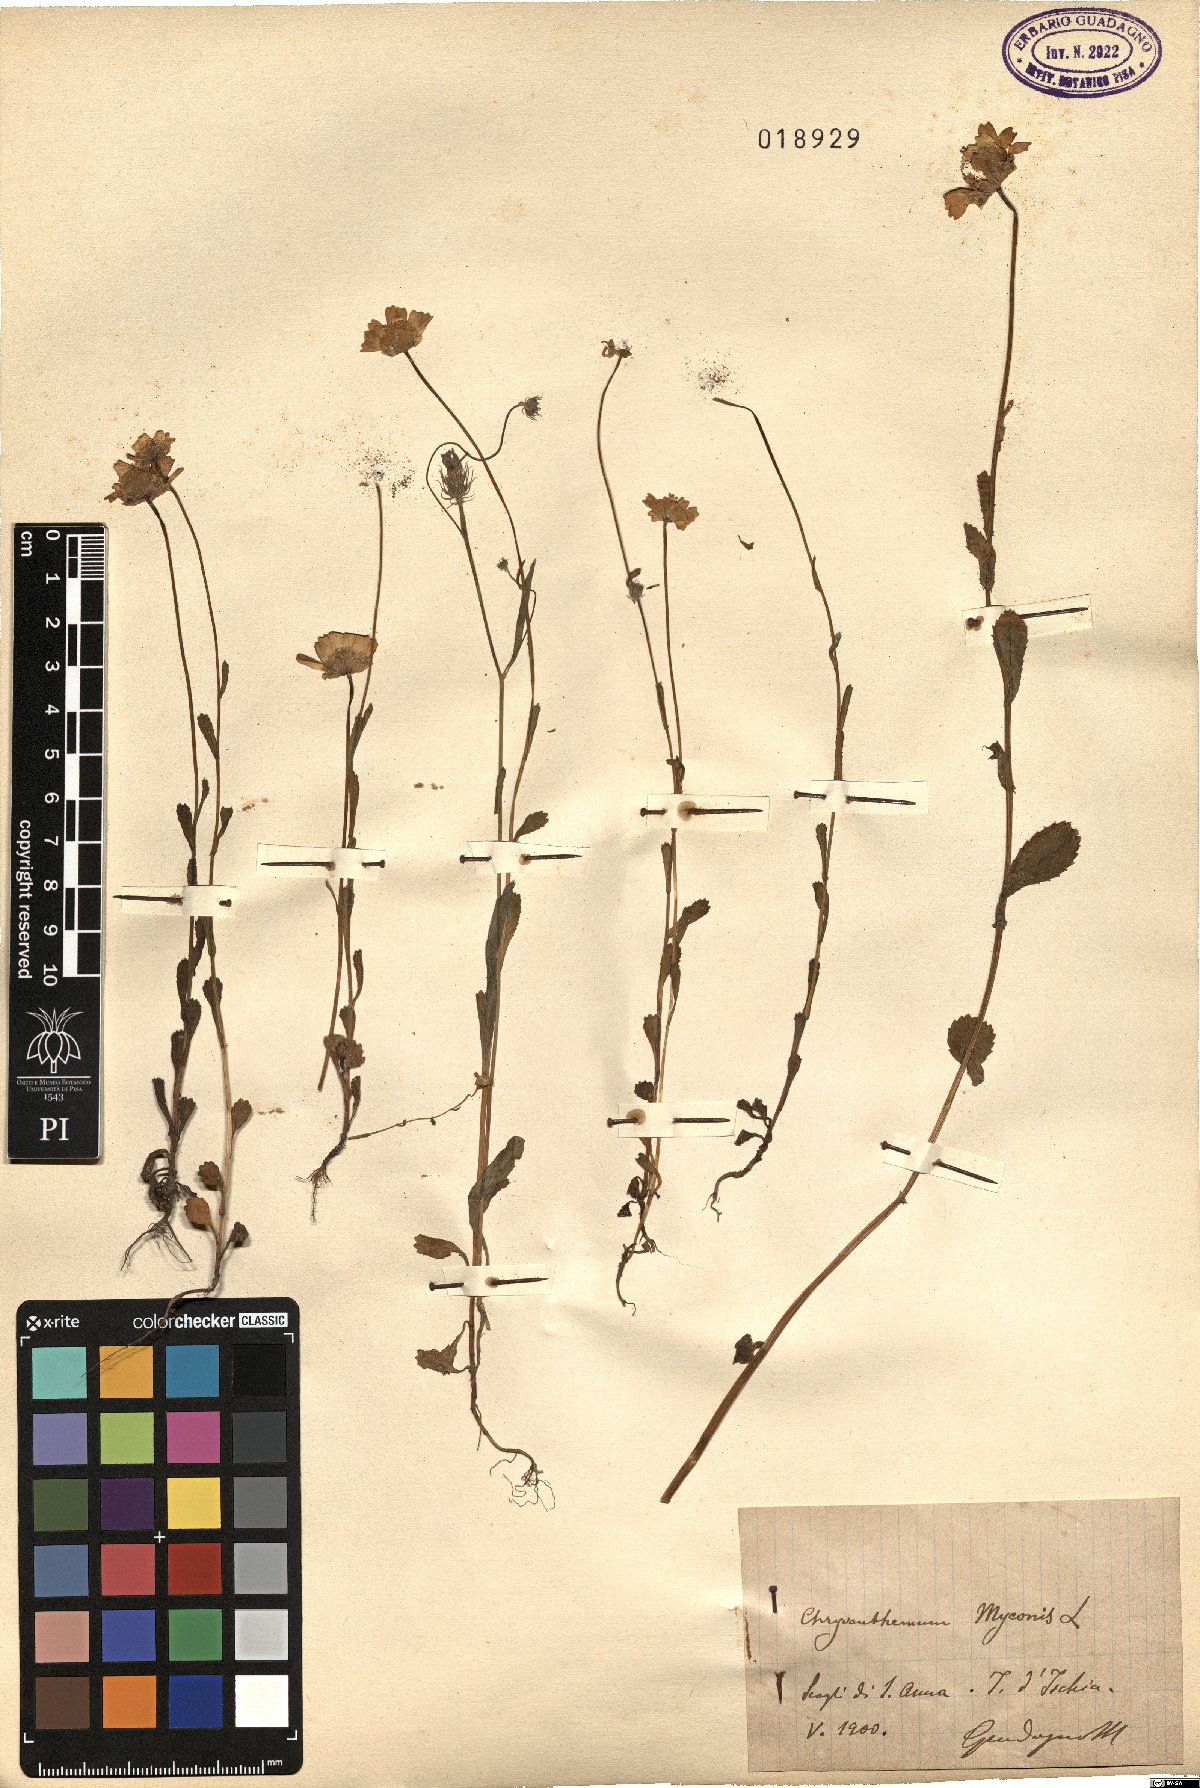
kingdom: Plantae
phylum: Tracheophyta
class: Magnoliopsida
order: Asterales
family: Asteraceae
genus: Coleostephus
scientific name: Coleostephus myconis
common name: Mediterranean marigold
